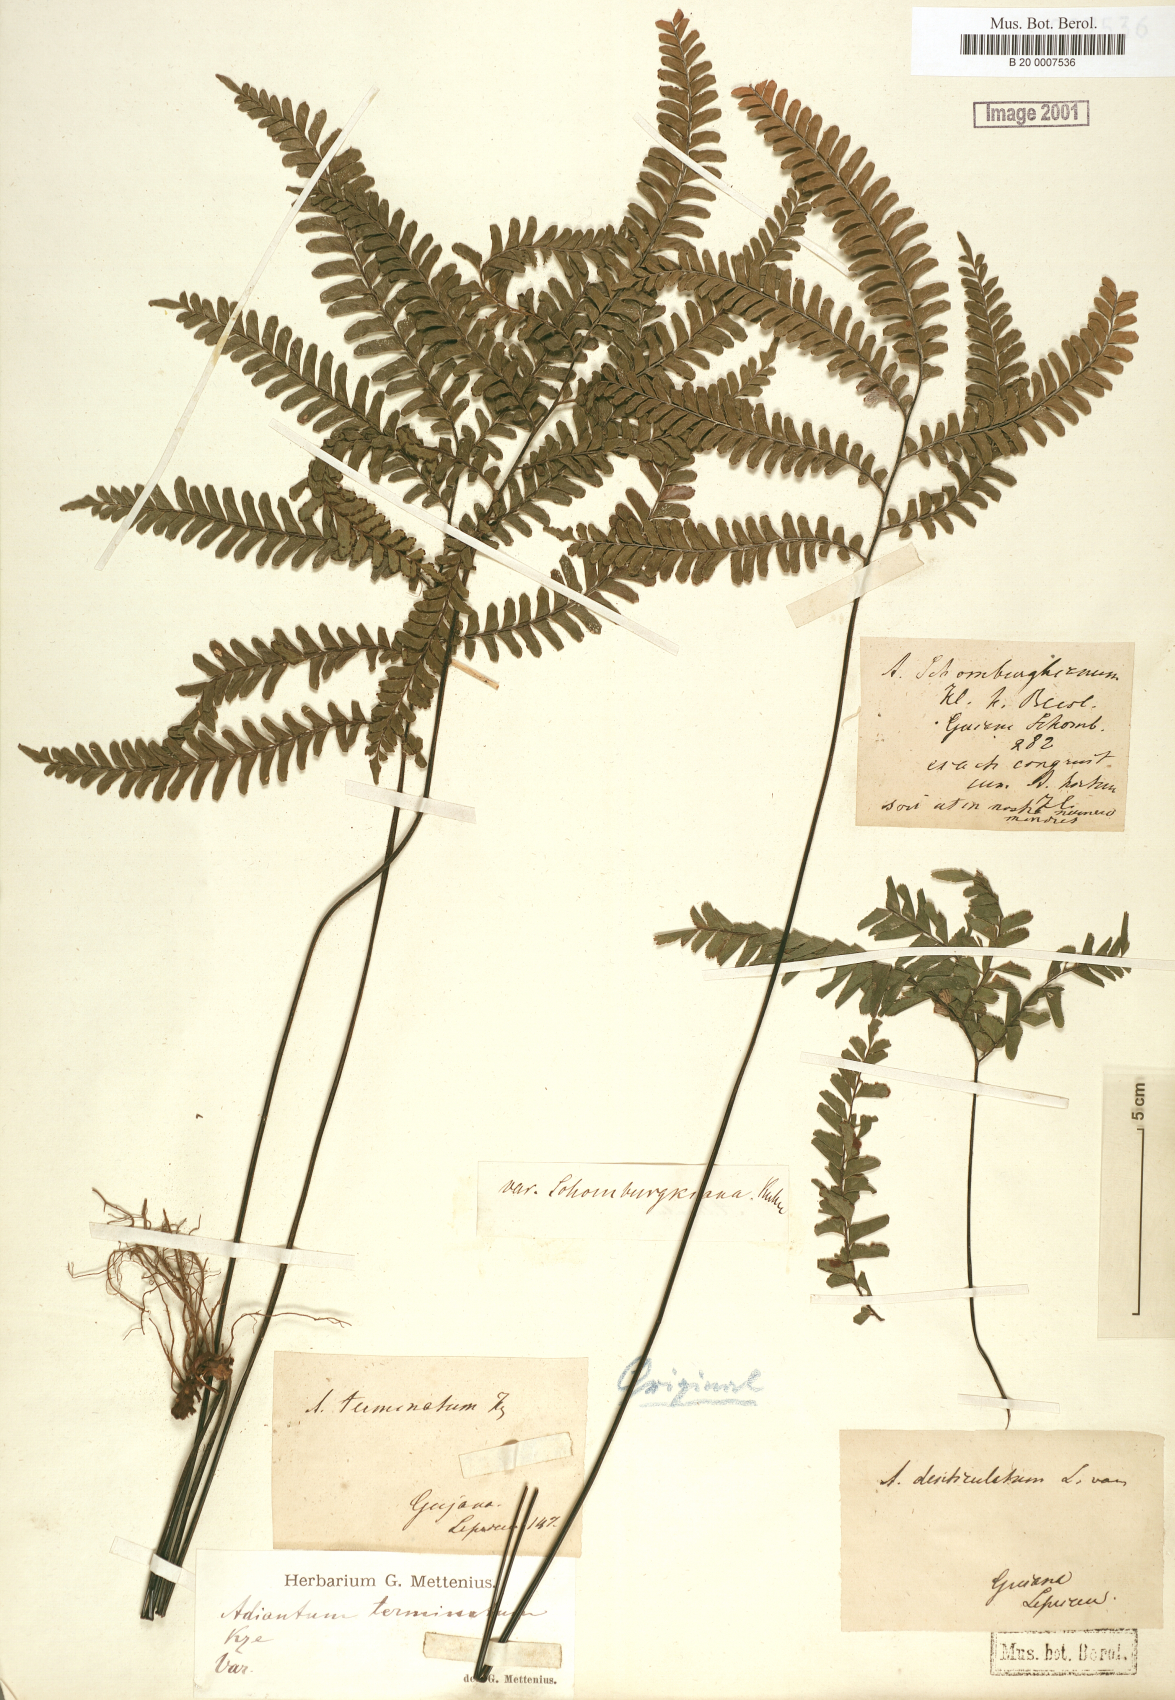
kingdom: Plantae
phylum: Tracheophyta
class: Polypodiopsida
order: Polypodiales
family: Pteridaceae
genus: Adiantum
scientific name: Adiantum terminatum
